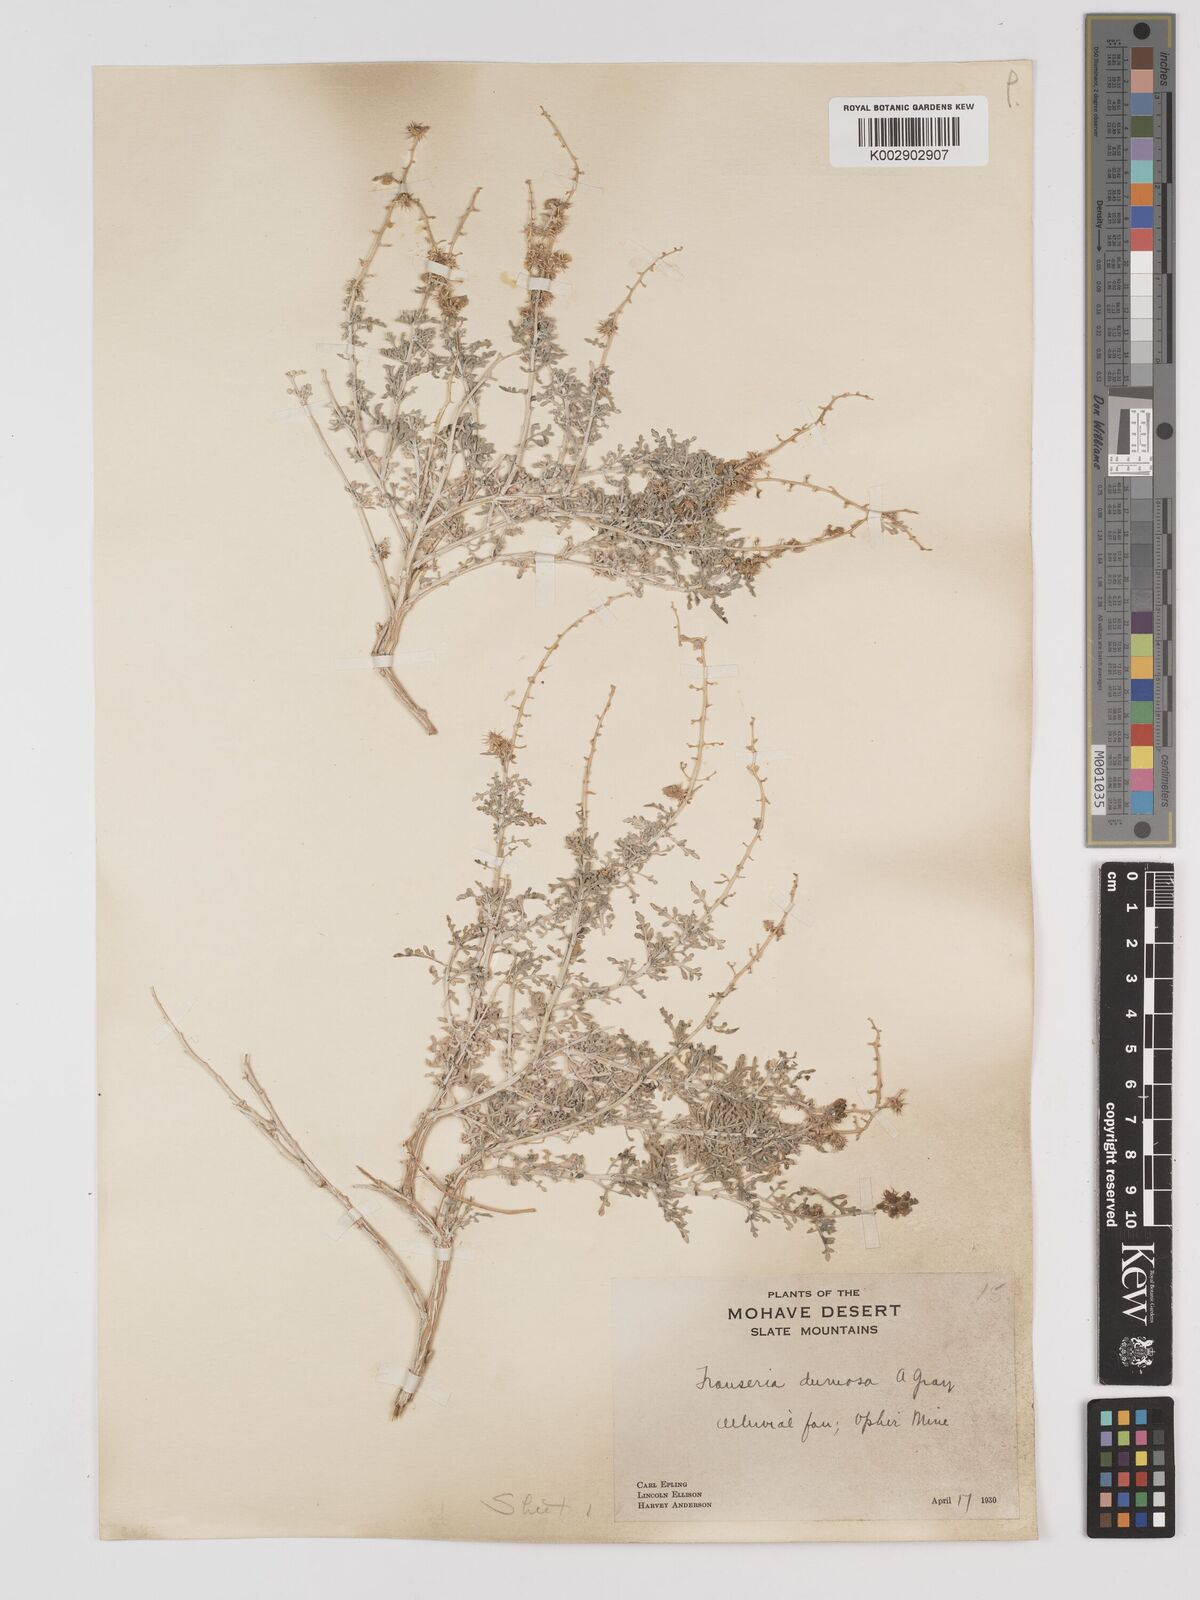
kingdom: Plantae
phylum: Tracheophyta
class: Magnoliopsida
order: Asterales
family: Asteraceae
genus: Ambrosia
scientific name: Ambrosia dumosa
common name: Bur-sage
